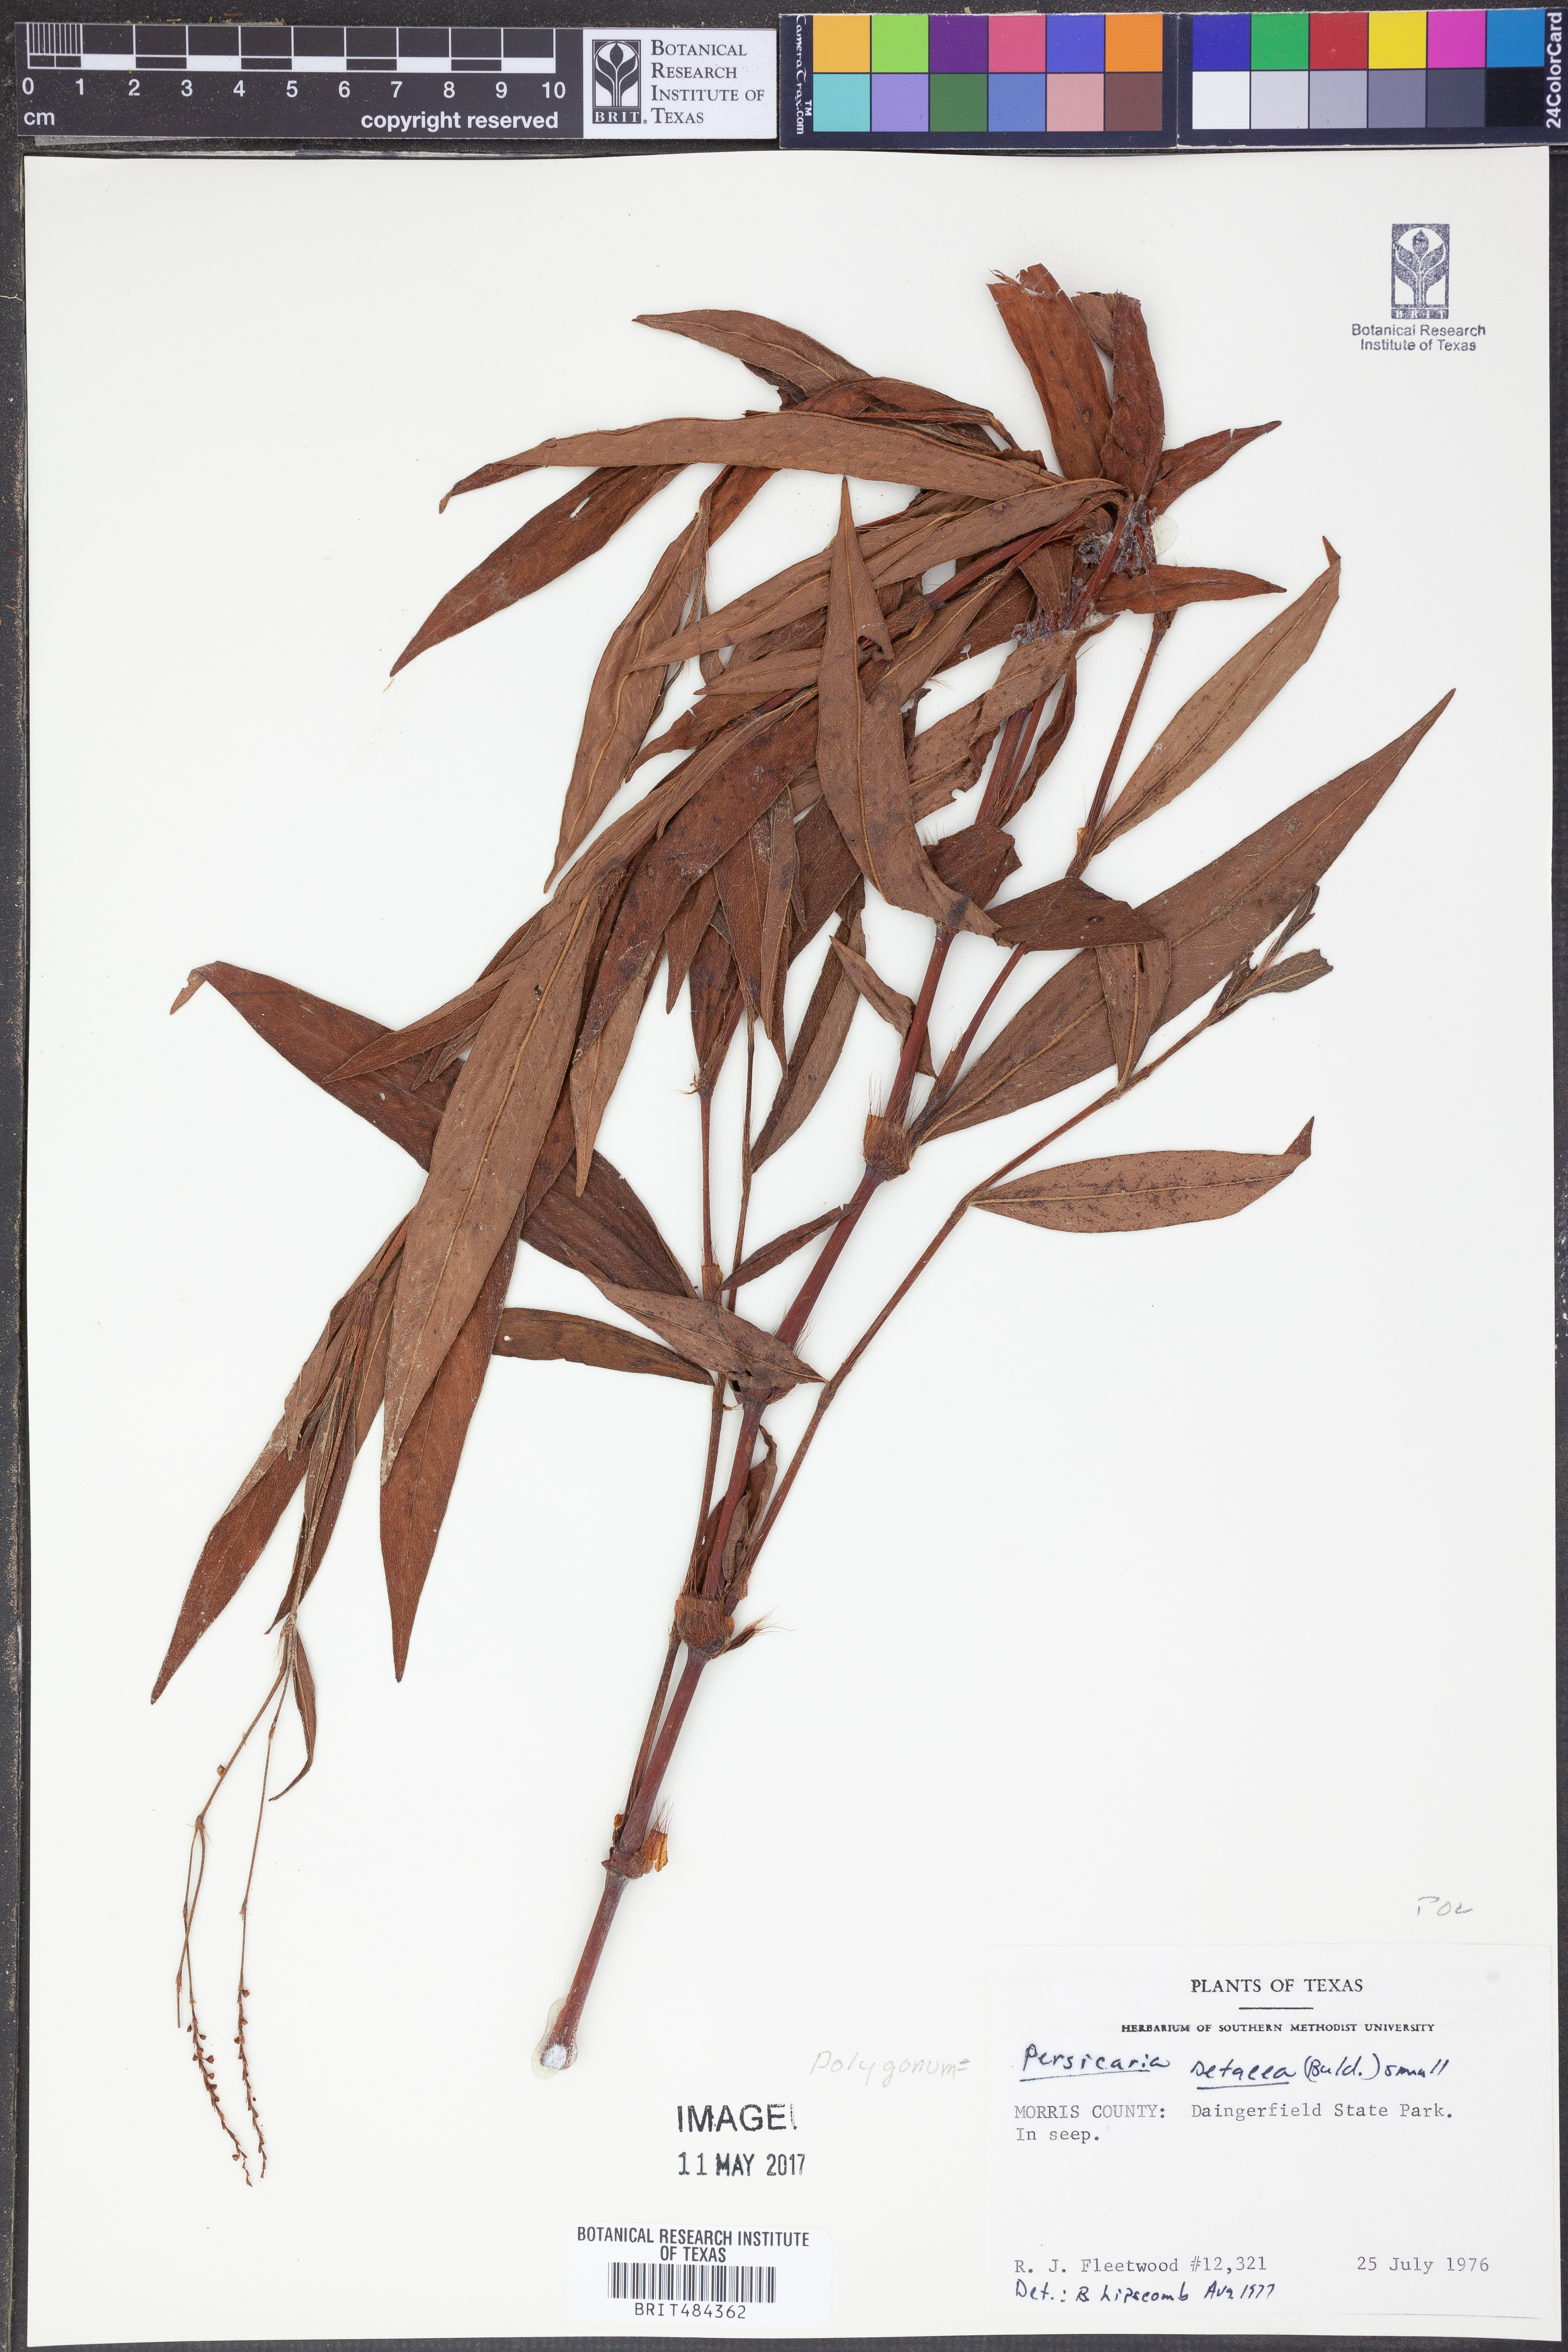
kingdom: Plantae
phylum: Tracheophyta
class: Magnoliopsida
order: Caryophyllales
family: Polygonaceae
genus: Persicaria
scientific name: Persicaria setacea
